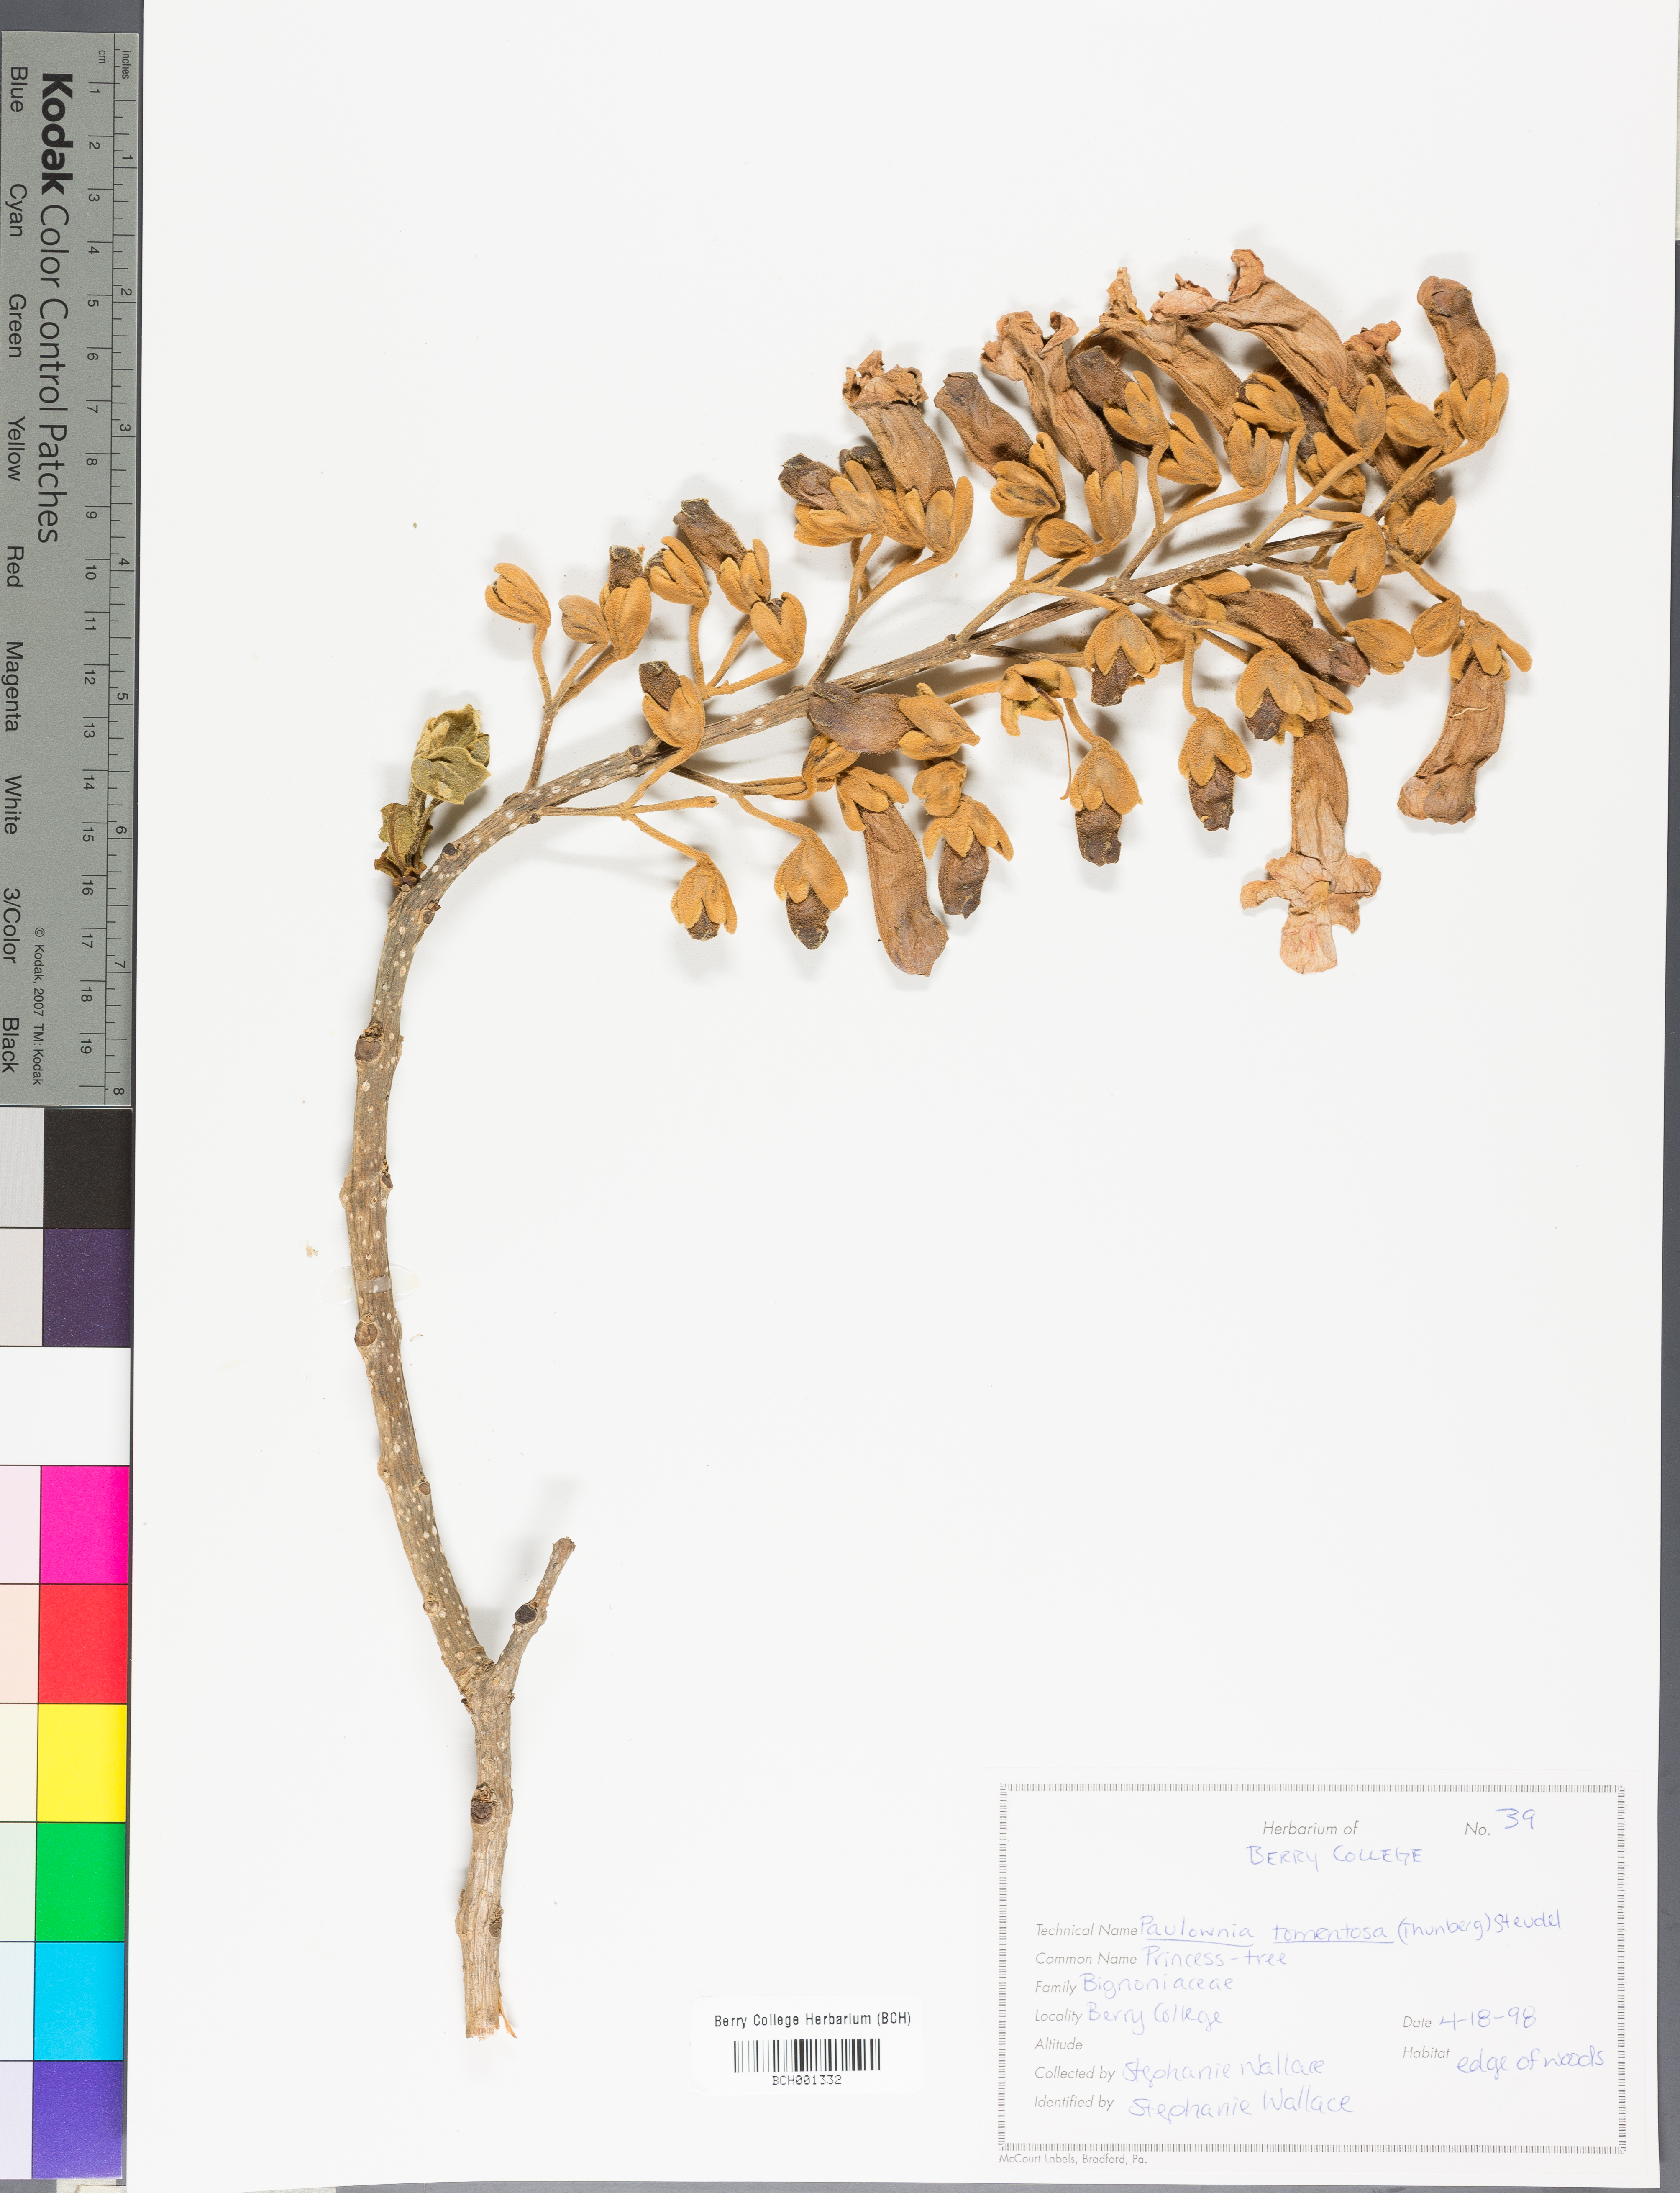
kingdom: Plantae
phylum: Tracheophyta
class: Magnoliopsida
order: Lamiales
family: Paulowniaceae
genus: Paulownia
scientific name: Paulownia tomentosa
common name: Foxglove-tree
